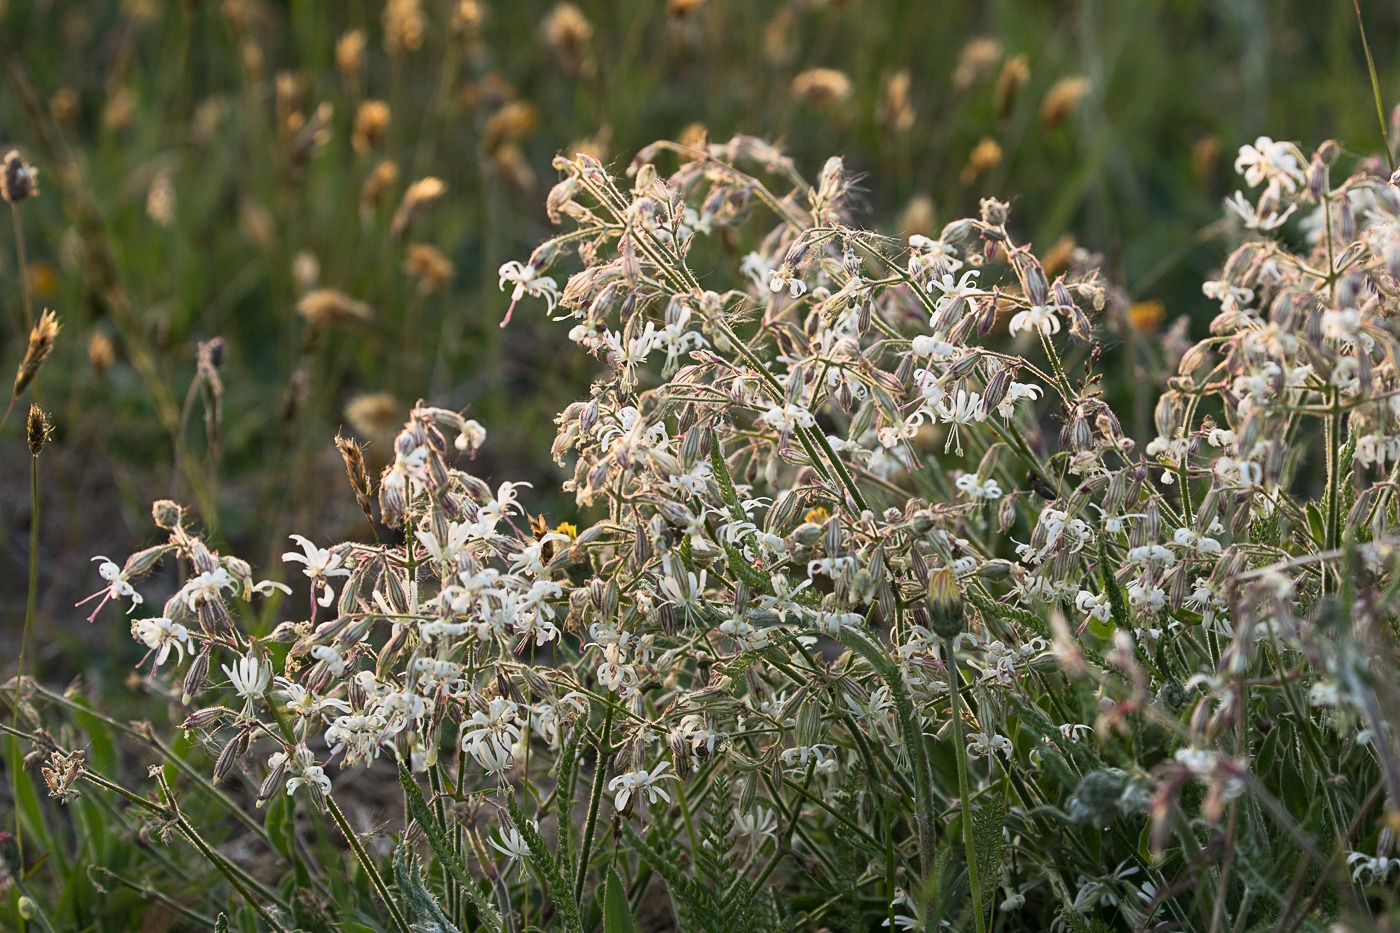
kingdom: Plantae
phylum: Tracheophyta
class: Magnoliopsida
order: Caryophyllales
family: Caryophyllaceae
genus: Silene
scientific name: Silene nutans
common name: Nikkende limurt
